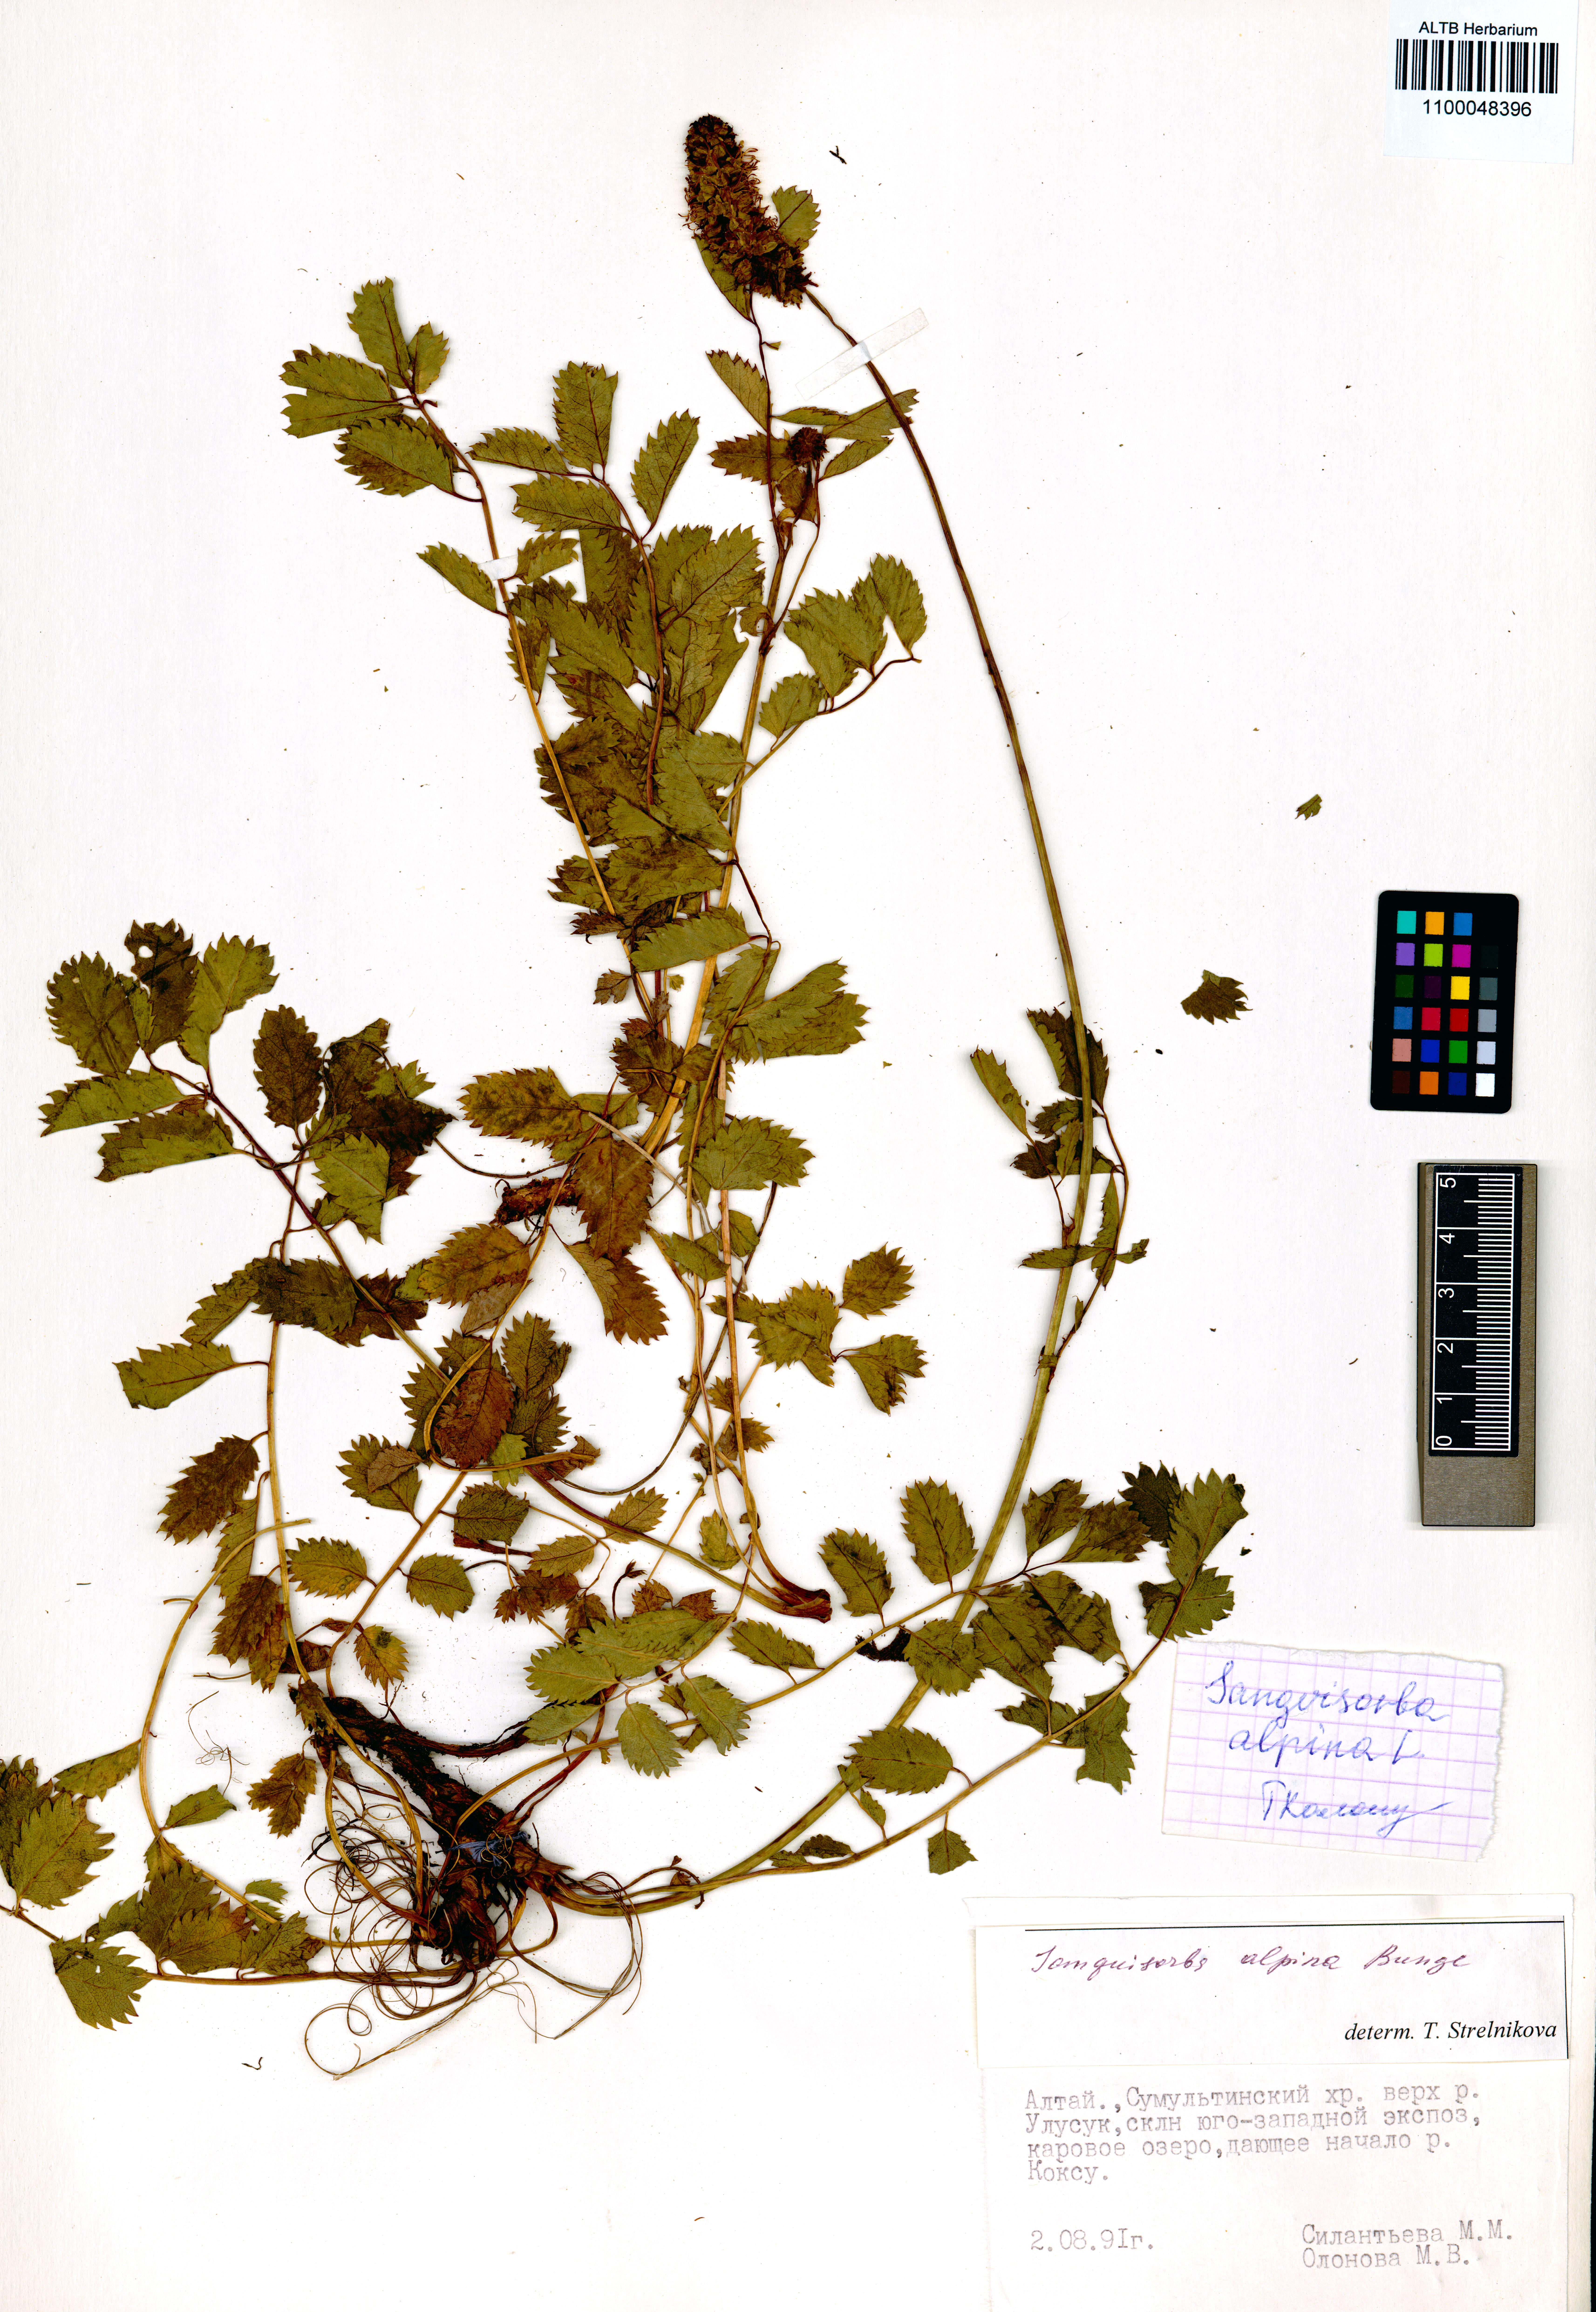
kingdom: Plantae
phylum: Tracheophyta
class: Magnoliopsida
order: Rosales
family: Rosaceae
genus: Sanguisorba
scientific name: Sanguisorba alpina
